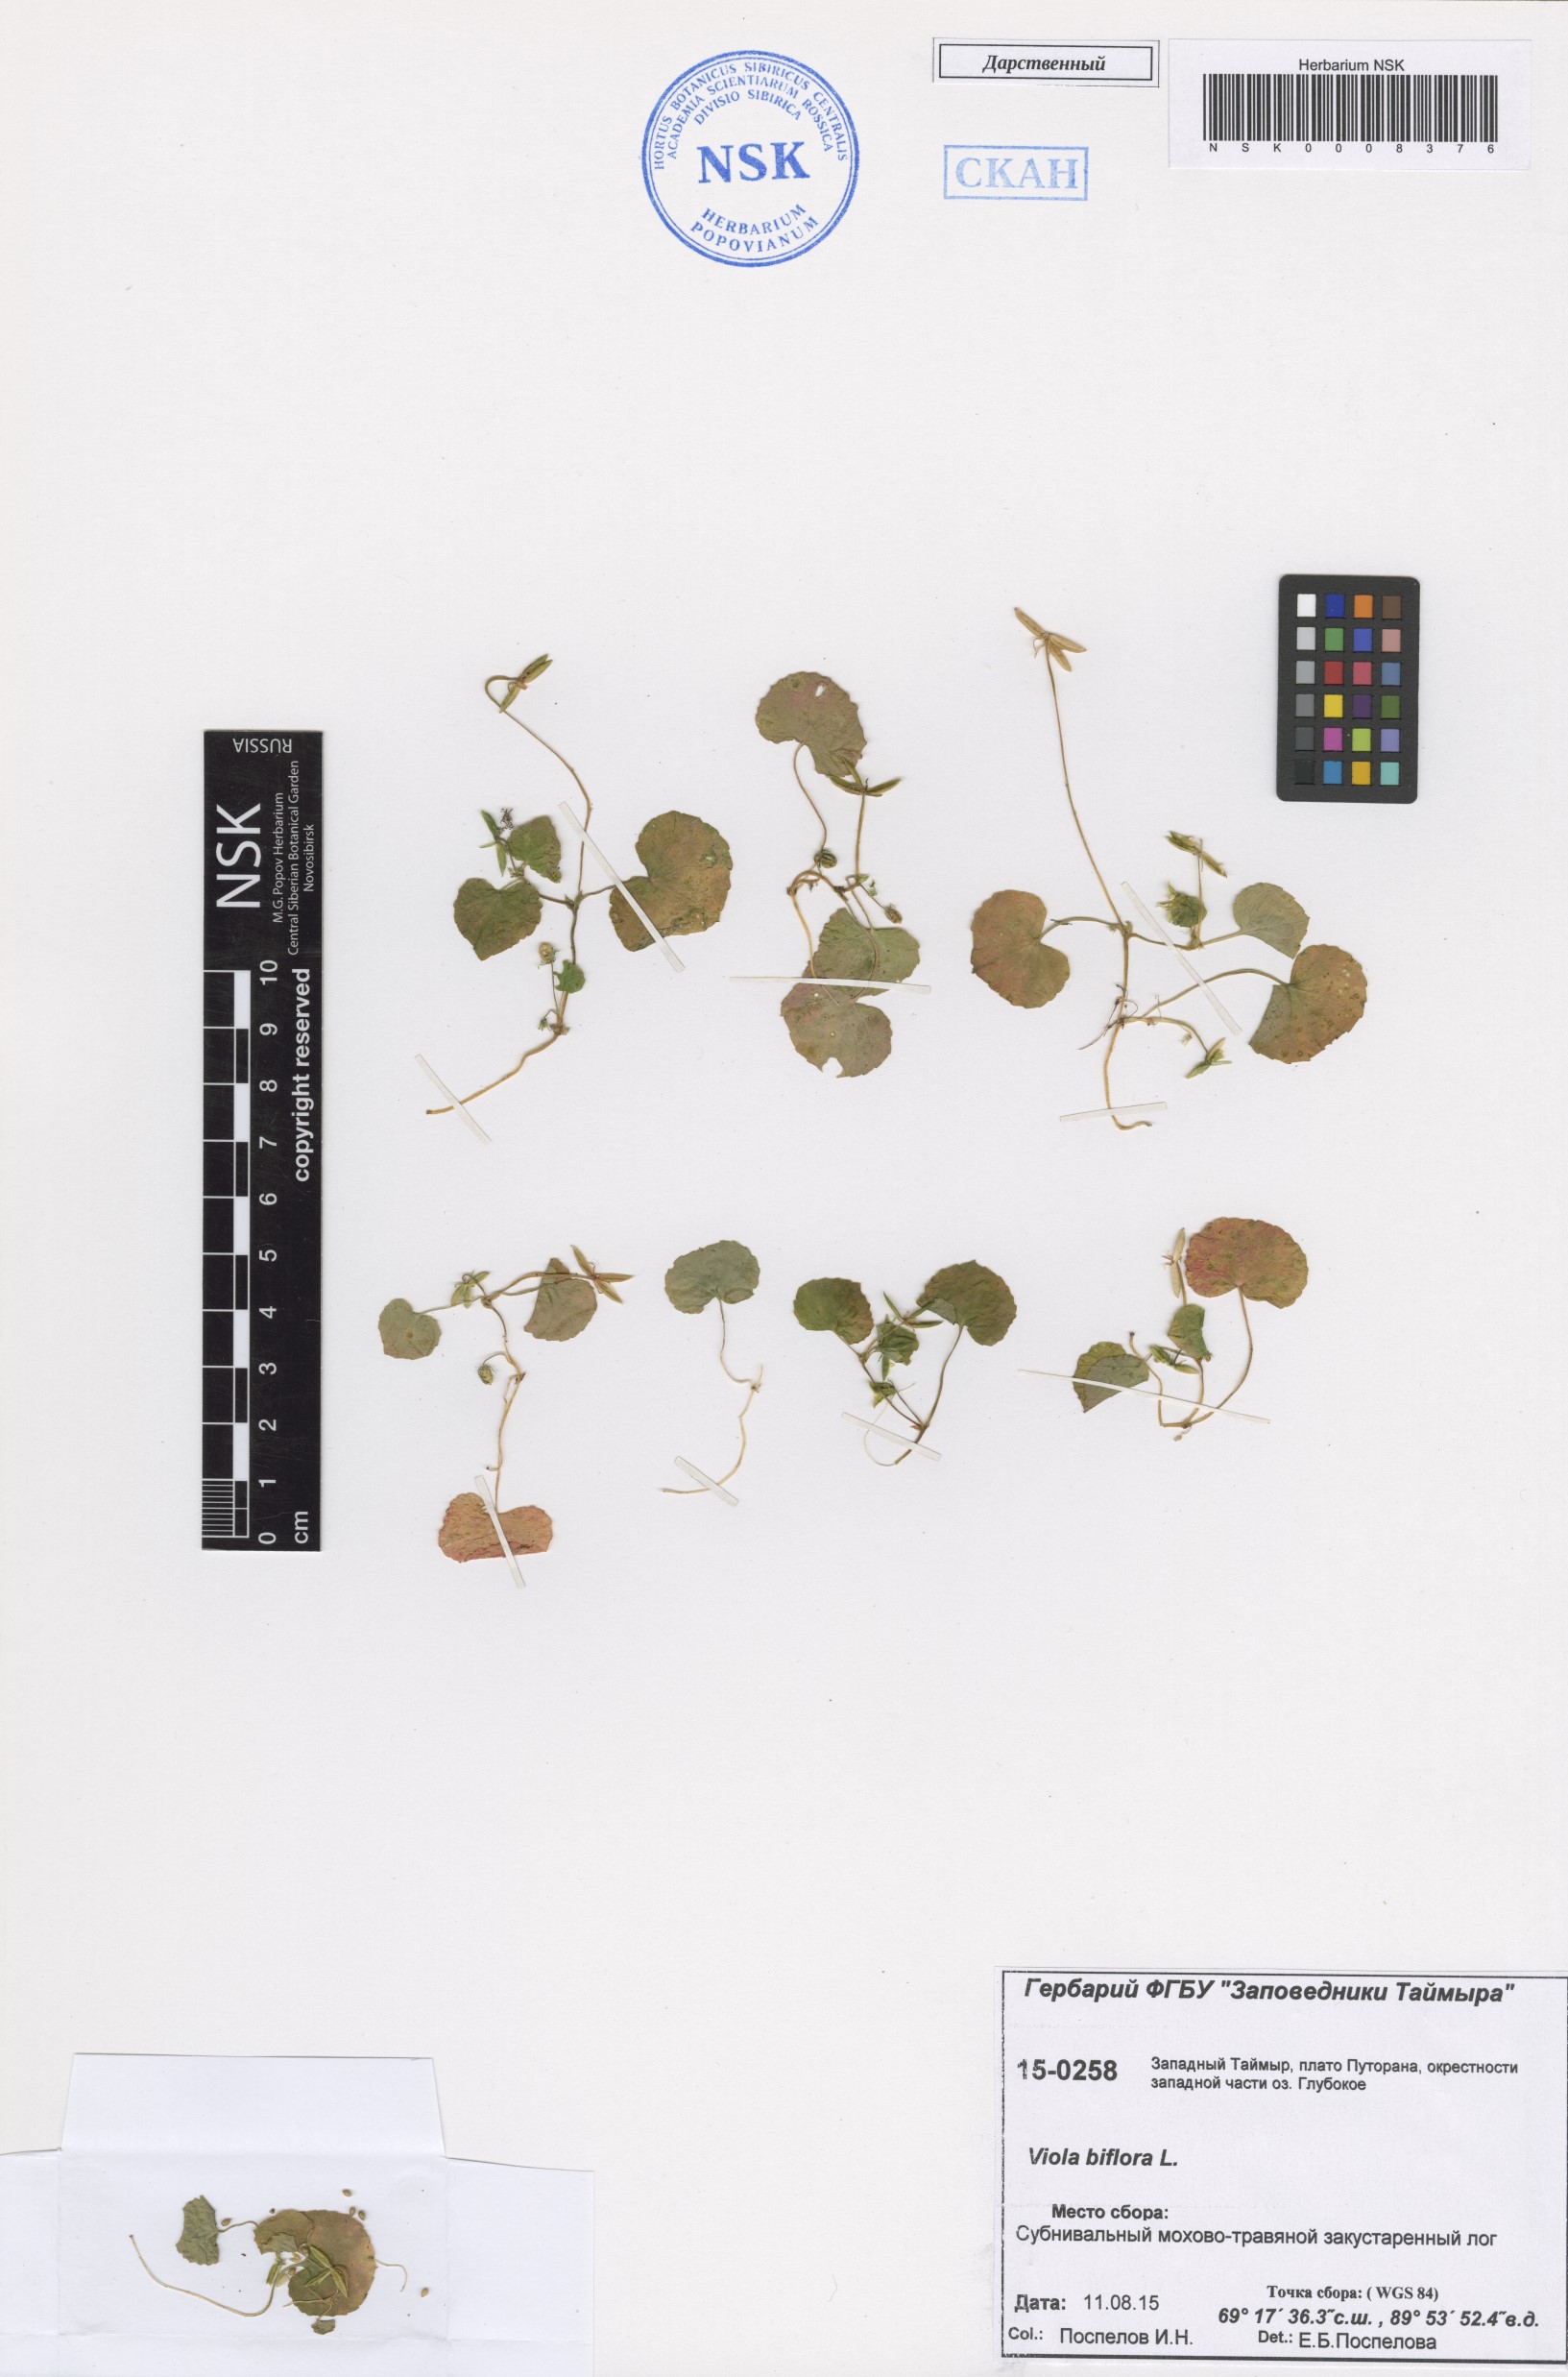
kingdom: Plantae
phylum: Tracheophyta
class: Magnoliopsida
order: Malpighiales
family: Violaceae
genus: Viola
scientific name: Viola biflora
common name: Alpine yellow violet
